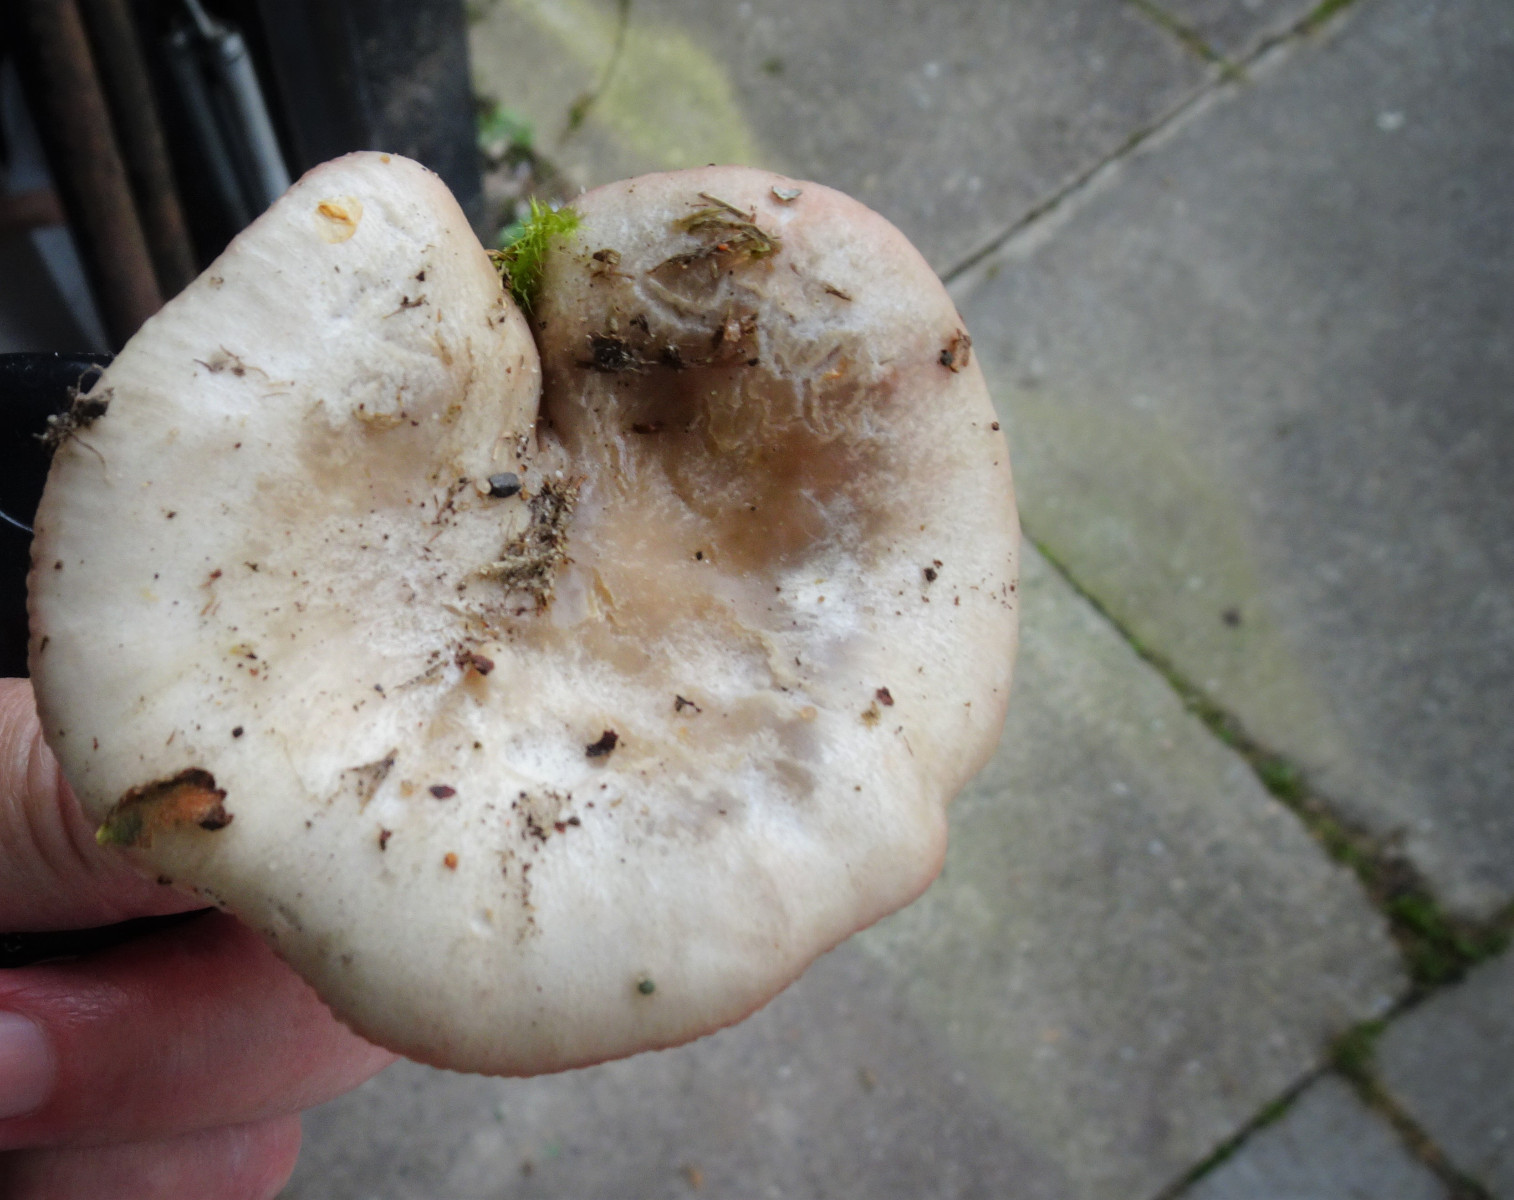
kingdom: Fungi
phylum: Basidiomycota
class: Agaricomycetes
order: Russulales
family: Russulaceae
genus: Russula
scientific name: Russula depallens
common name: falmende skørhat
